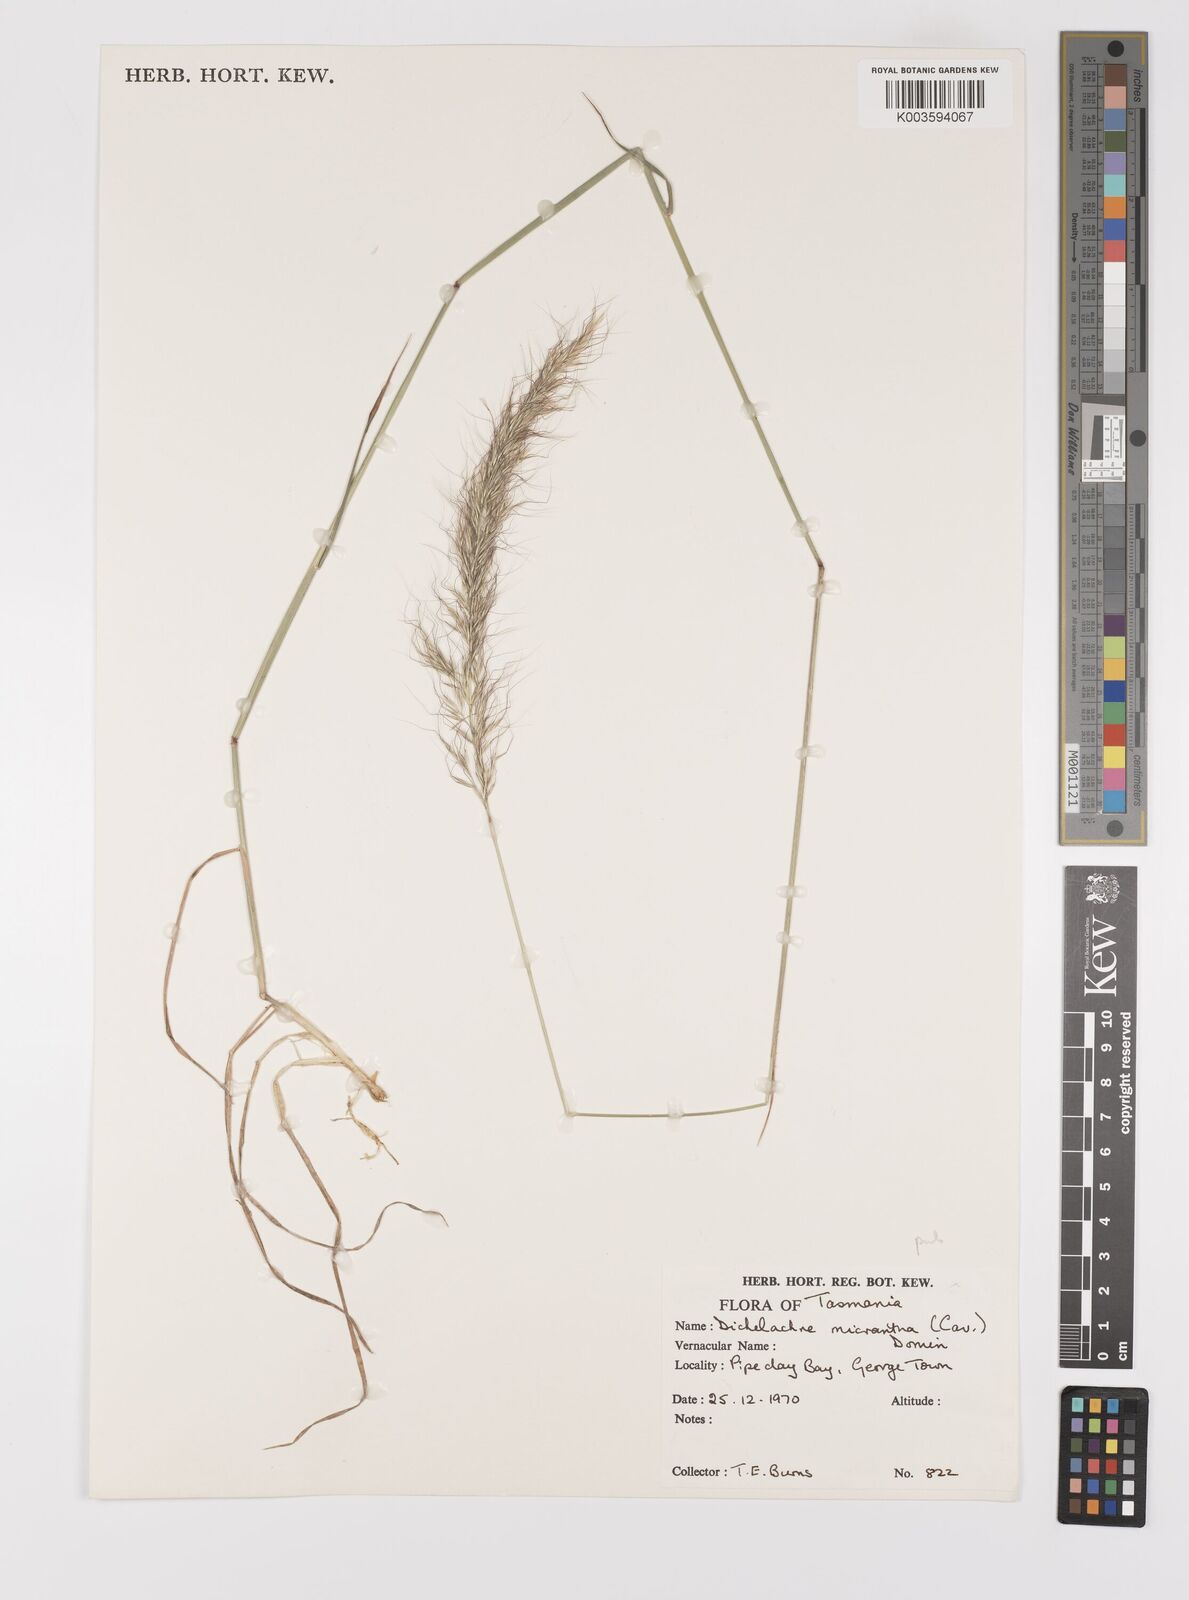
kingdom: Plantae
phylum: Tracheophyta
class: Liliopsida
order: Poales
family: Poaceae
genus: Dichelachne
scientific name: Dichelachne rara
